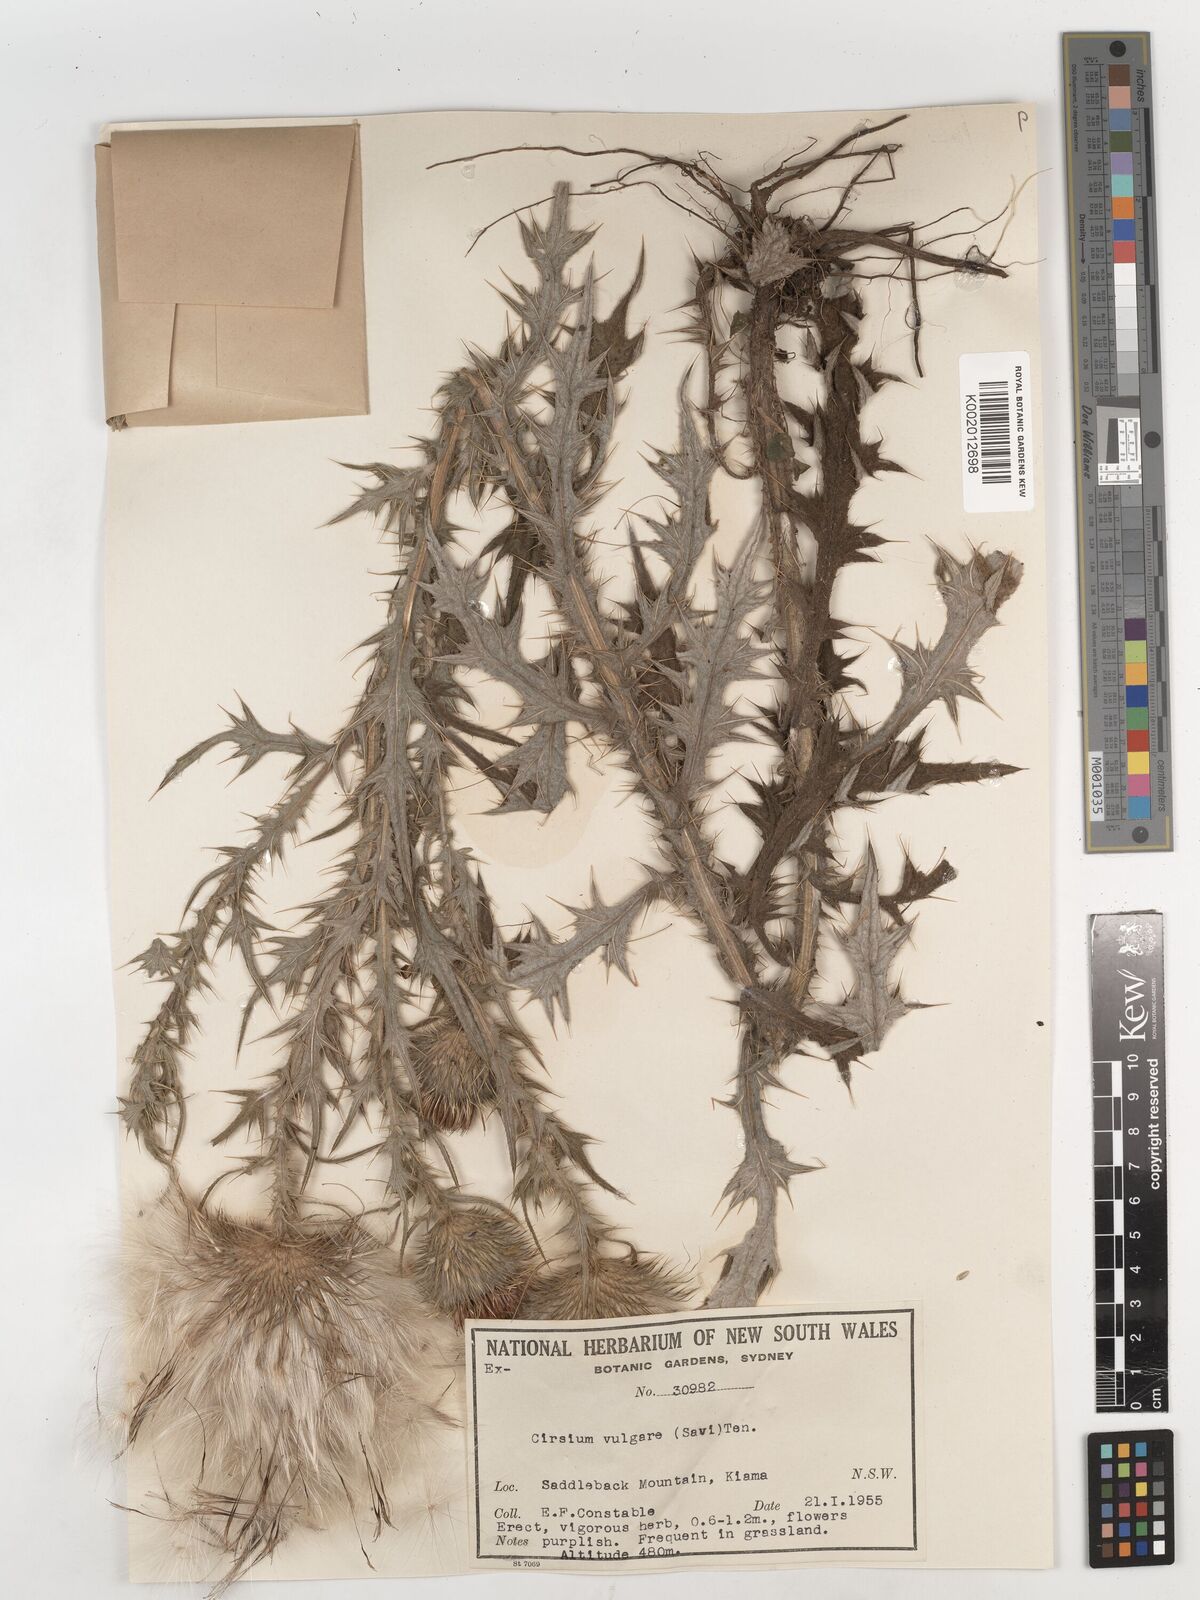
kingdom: Plantae
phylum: Tracheophyta
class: Magnoliopsida
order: Asterales
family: Asteraceae
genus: Cirsium
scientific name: Cirsium vulgare
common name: Bull thistle
